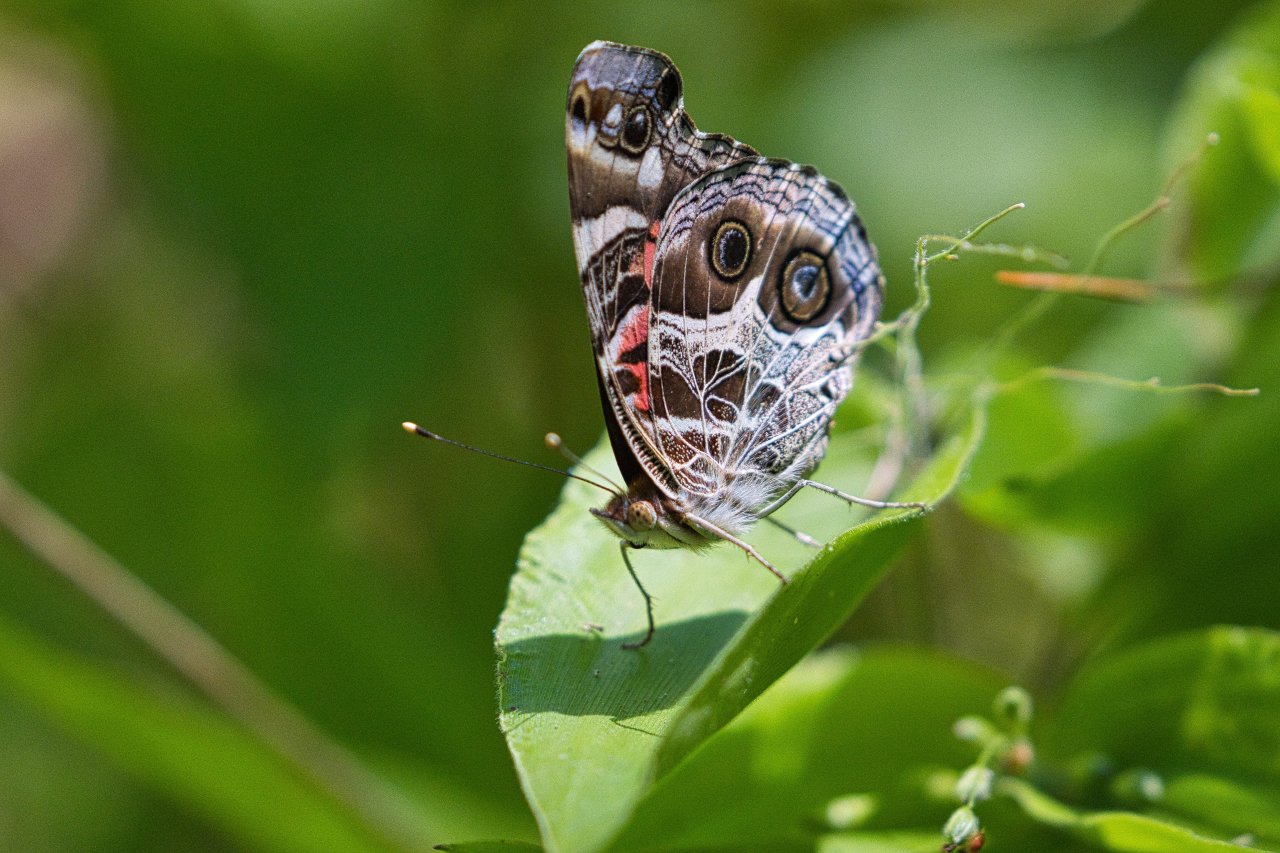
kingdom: Animalia
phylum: Arthropoda
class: Insecta
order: Lepidoptera
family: Nymphalidae
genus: Vanessa
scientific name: Vanessa virginiensis
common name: American Lady
